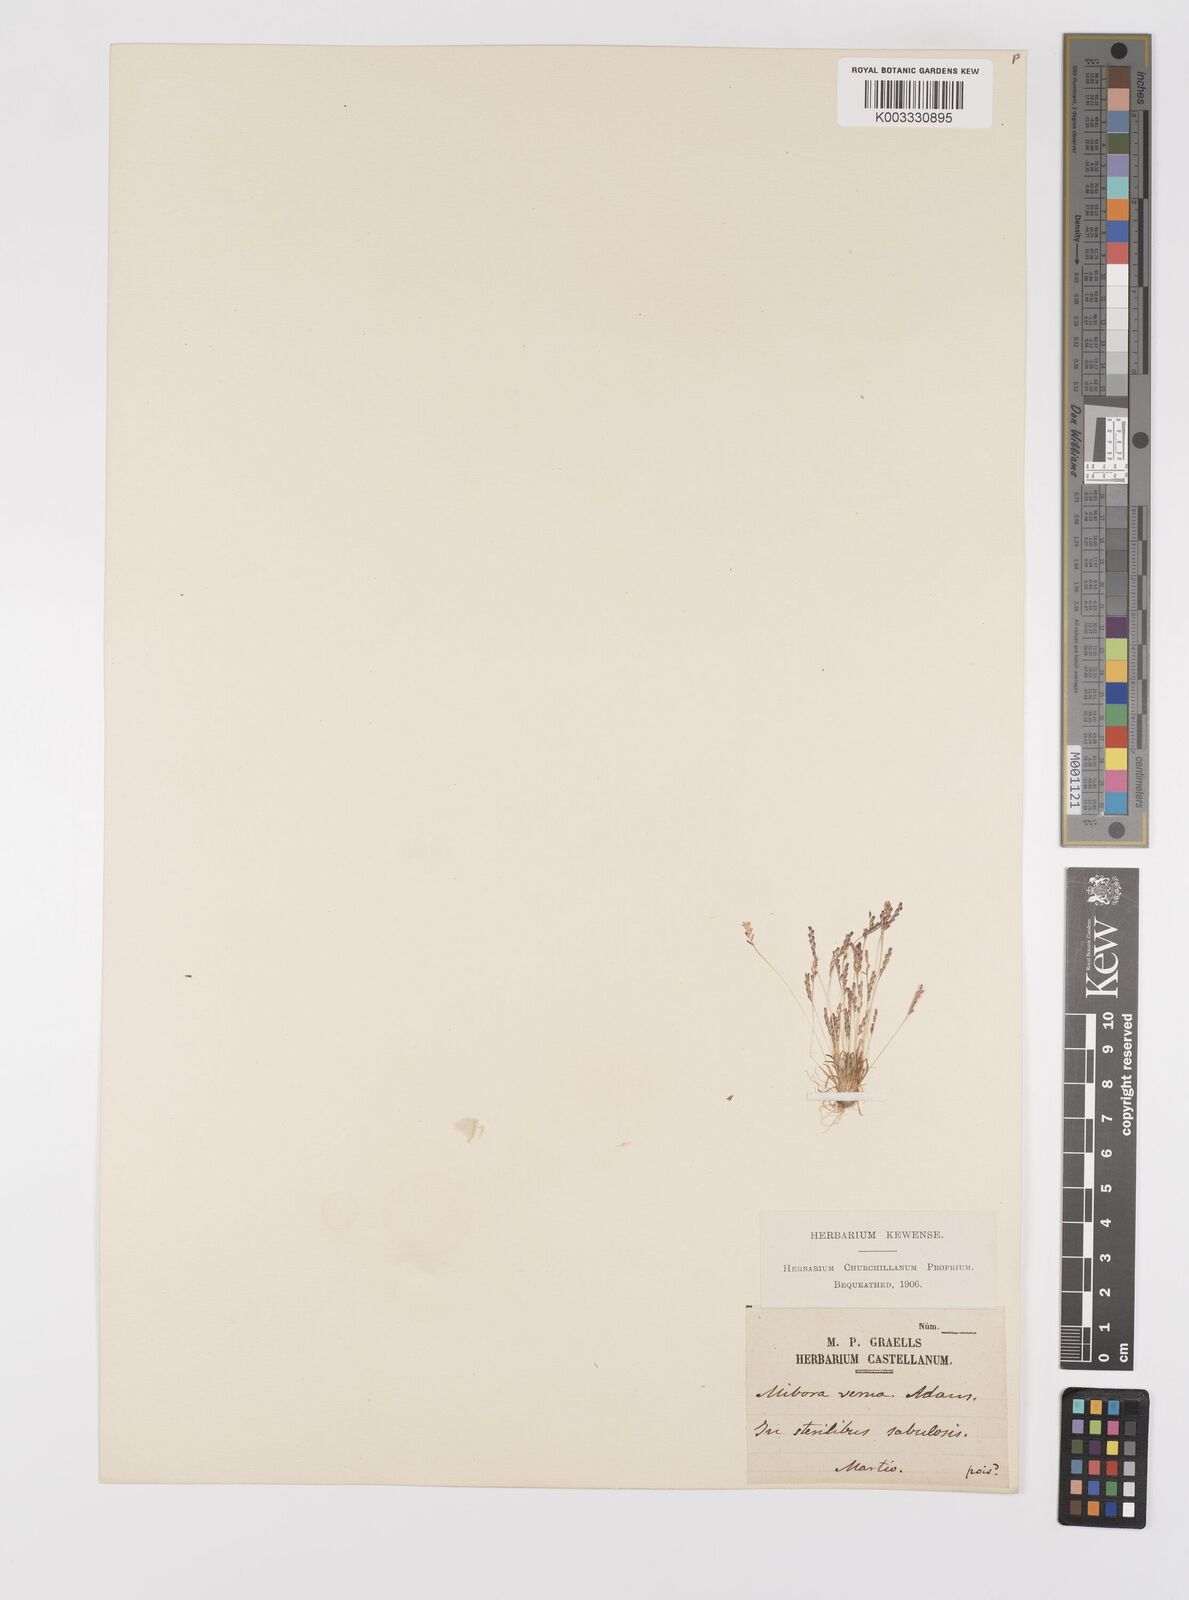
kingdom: Plantae
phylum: Tracheophyta
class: Liliopsida
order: Poales
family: Poaceae
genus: Mibora
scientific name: Mibora minima
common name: Early sand-grass
